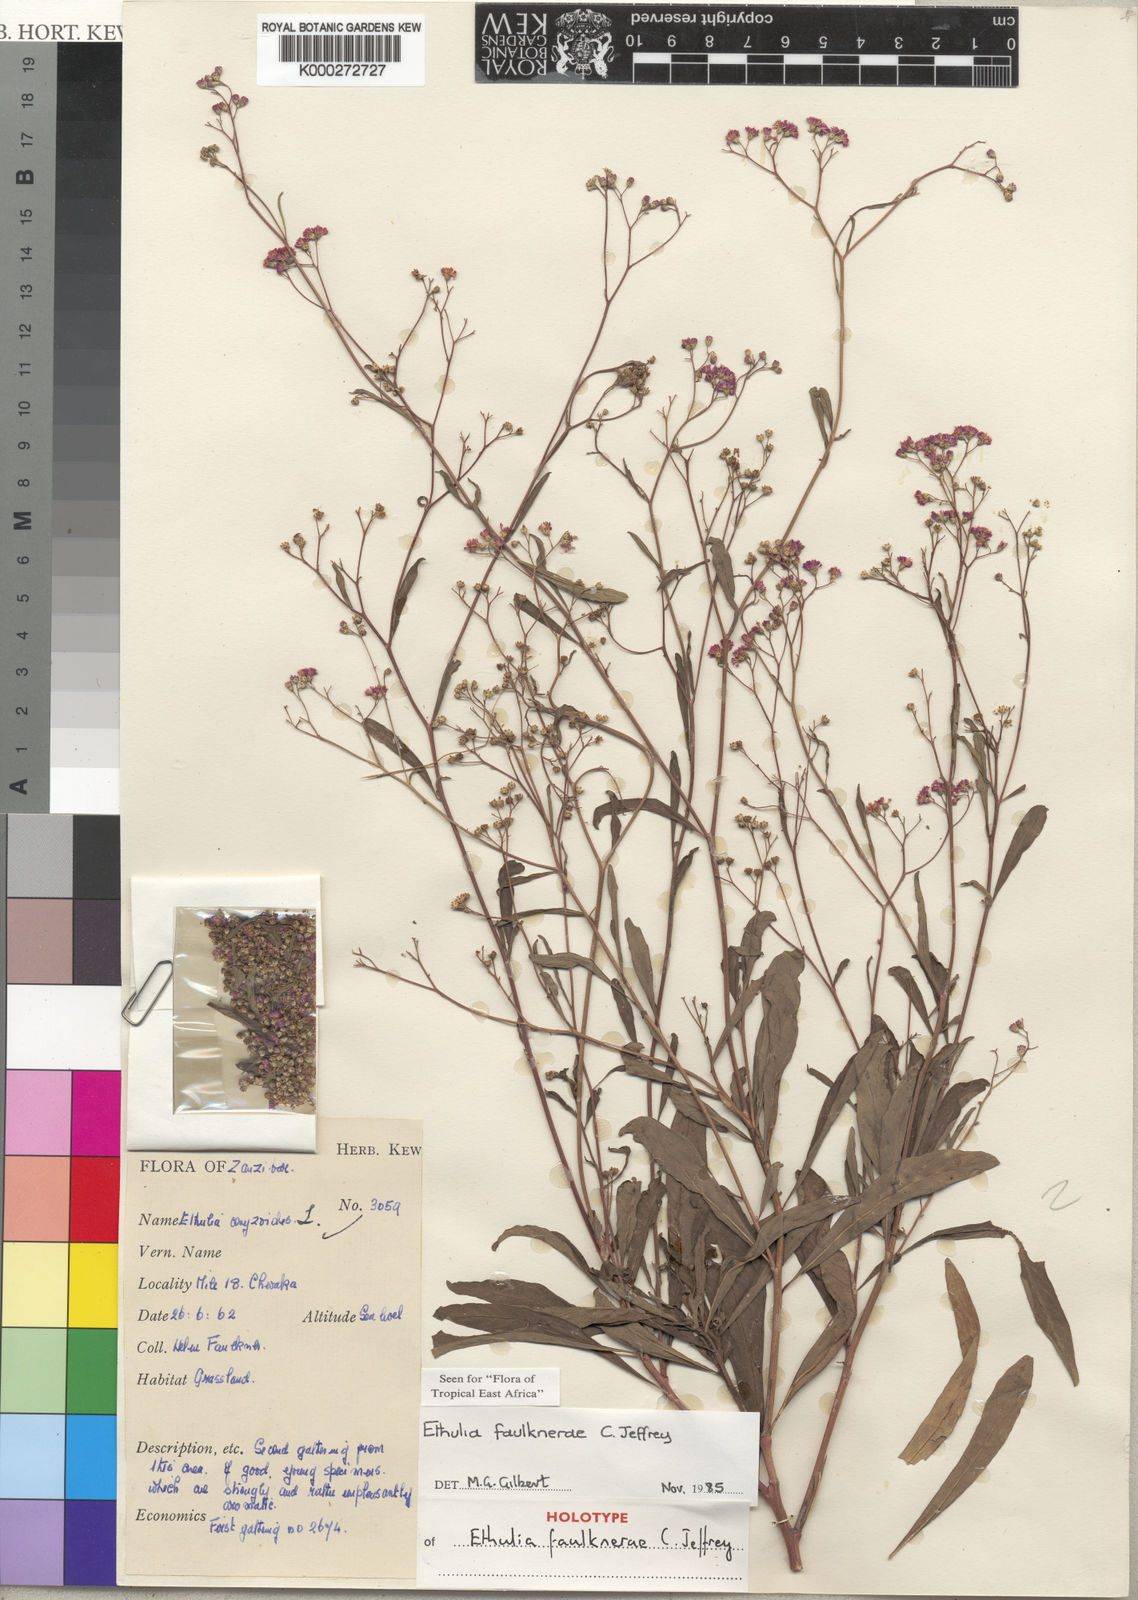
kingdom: Plantae
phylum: Tracheophyta
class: Magnoliopsida
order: Asterales
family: Asteraceae
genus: Ethulia
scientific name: Ethulia faulknerae
